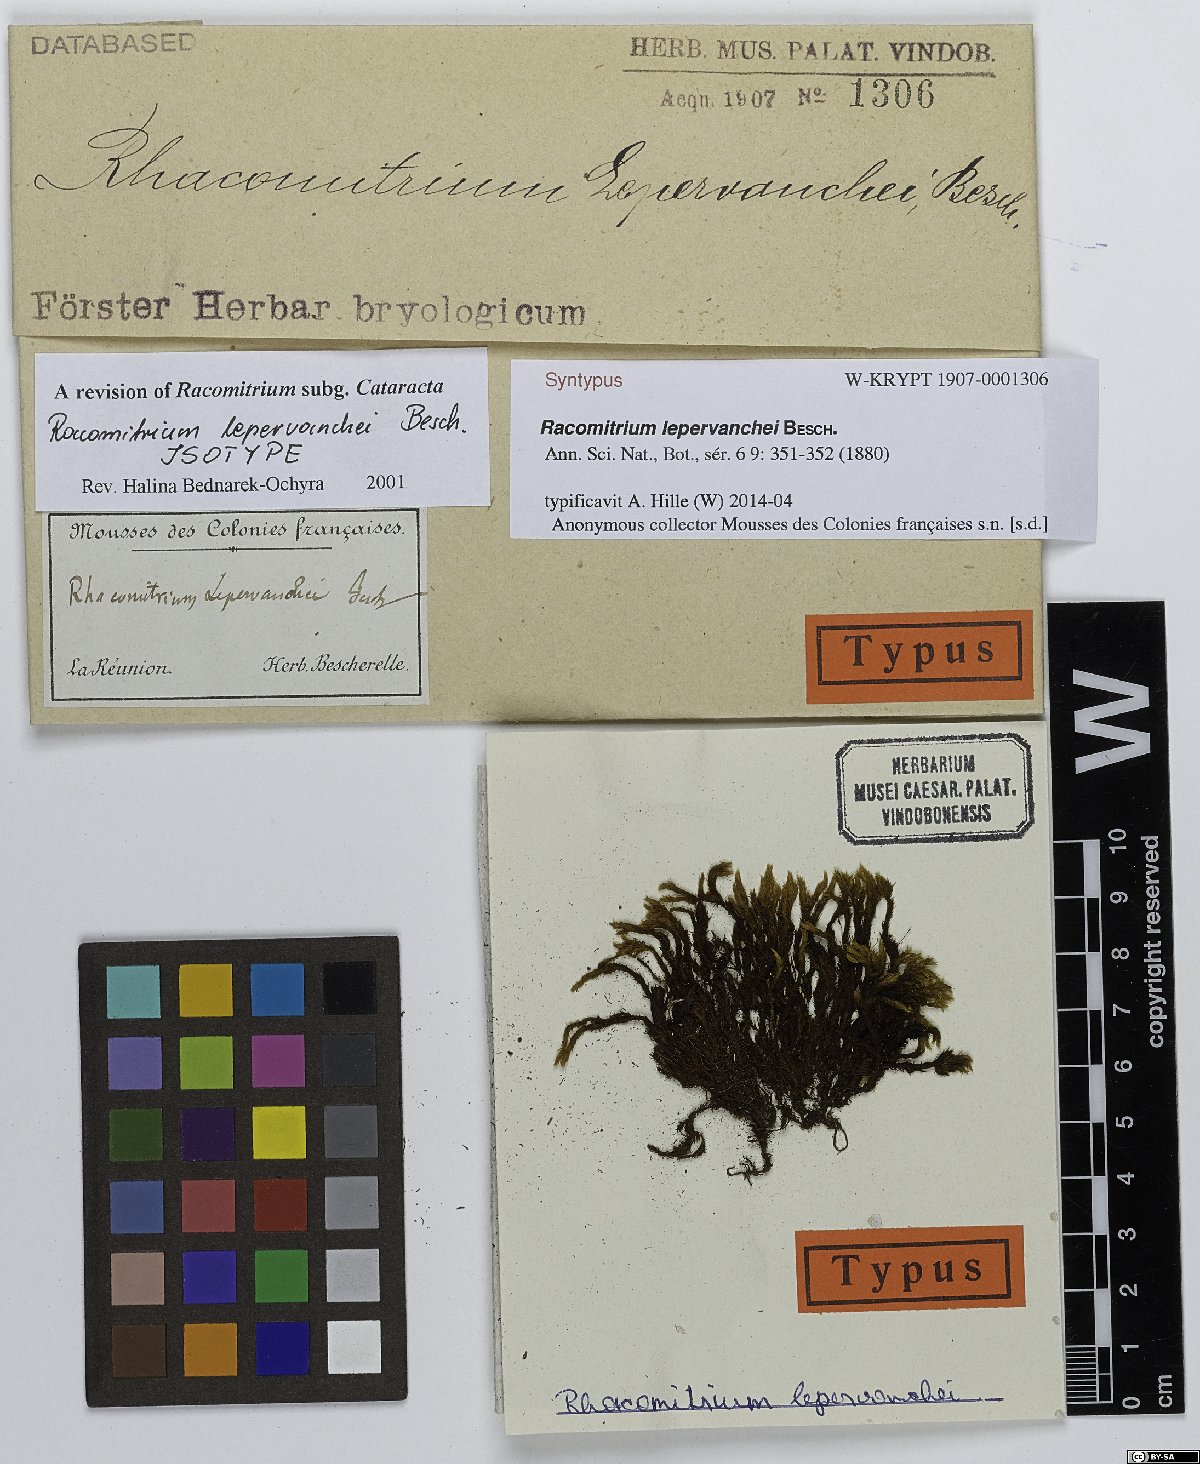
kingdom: Plantae
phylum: Bryophyta
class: Bryopsida
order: Grimmiales
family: Grimmiaceae
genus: Bucklandiella
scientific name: Bucklandiella lepervanchei
